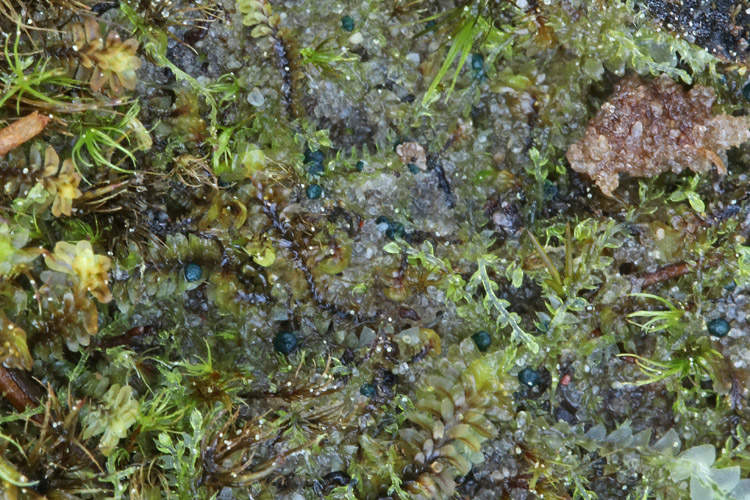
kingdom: Fungi
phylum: Ascomycota
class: Leotiomycetes
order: Leotiales
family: Mniaeciaceae
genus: Mniaecia
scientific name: Mniaecia jungermanniae
